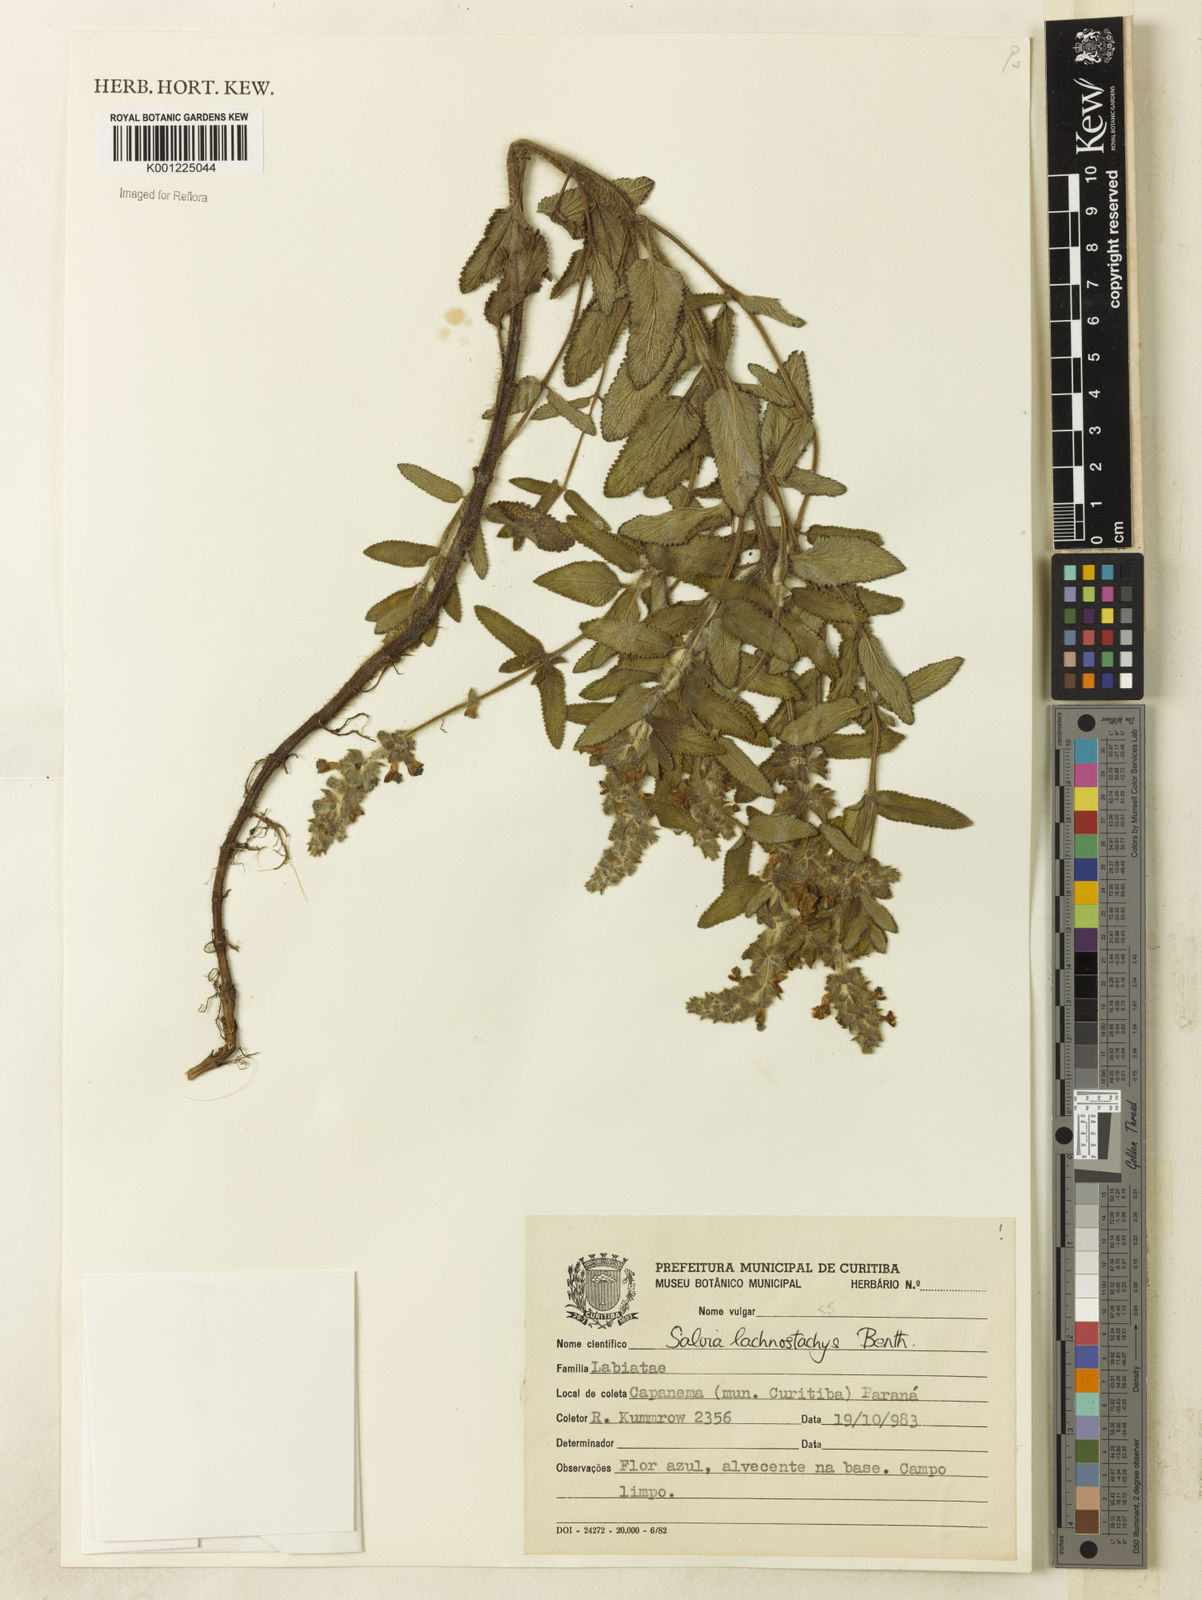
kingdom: Plantae
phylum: Tracheophyta
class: Magnoliopsida
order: Lamiales
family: Lamiaceae
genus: Salvia
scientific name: Salvia lachnostachys
